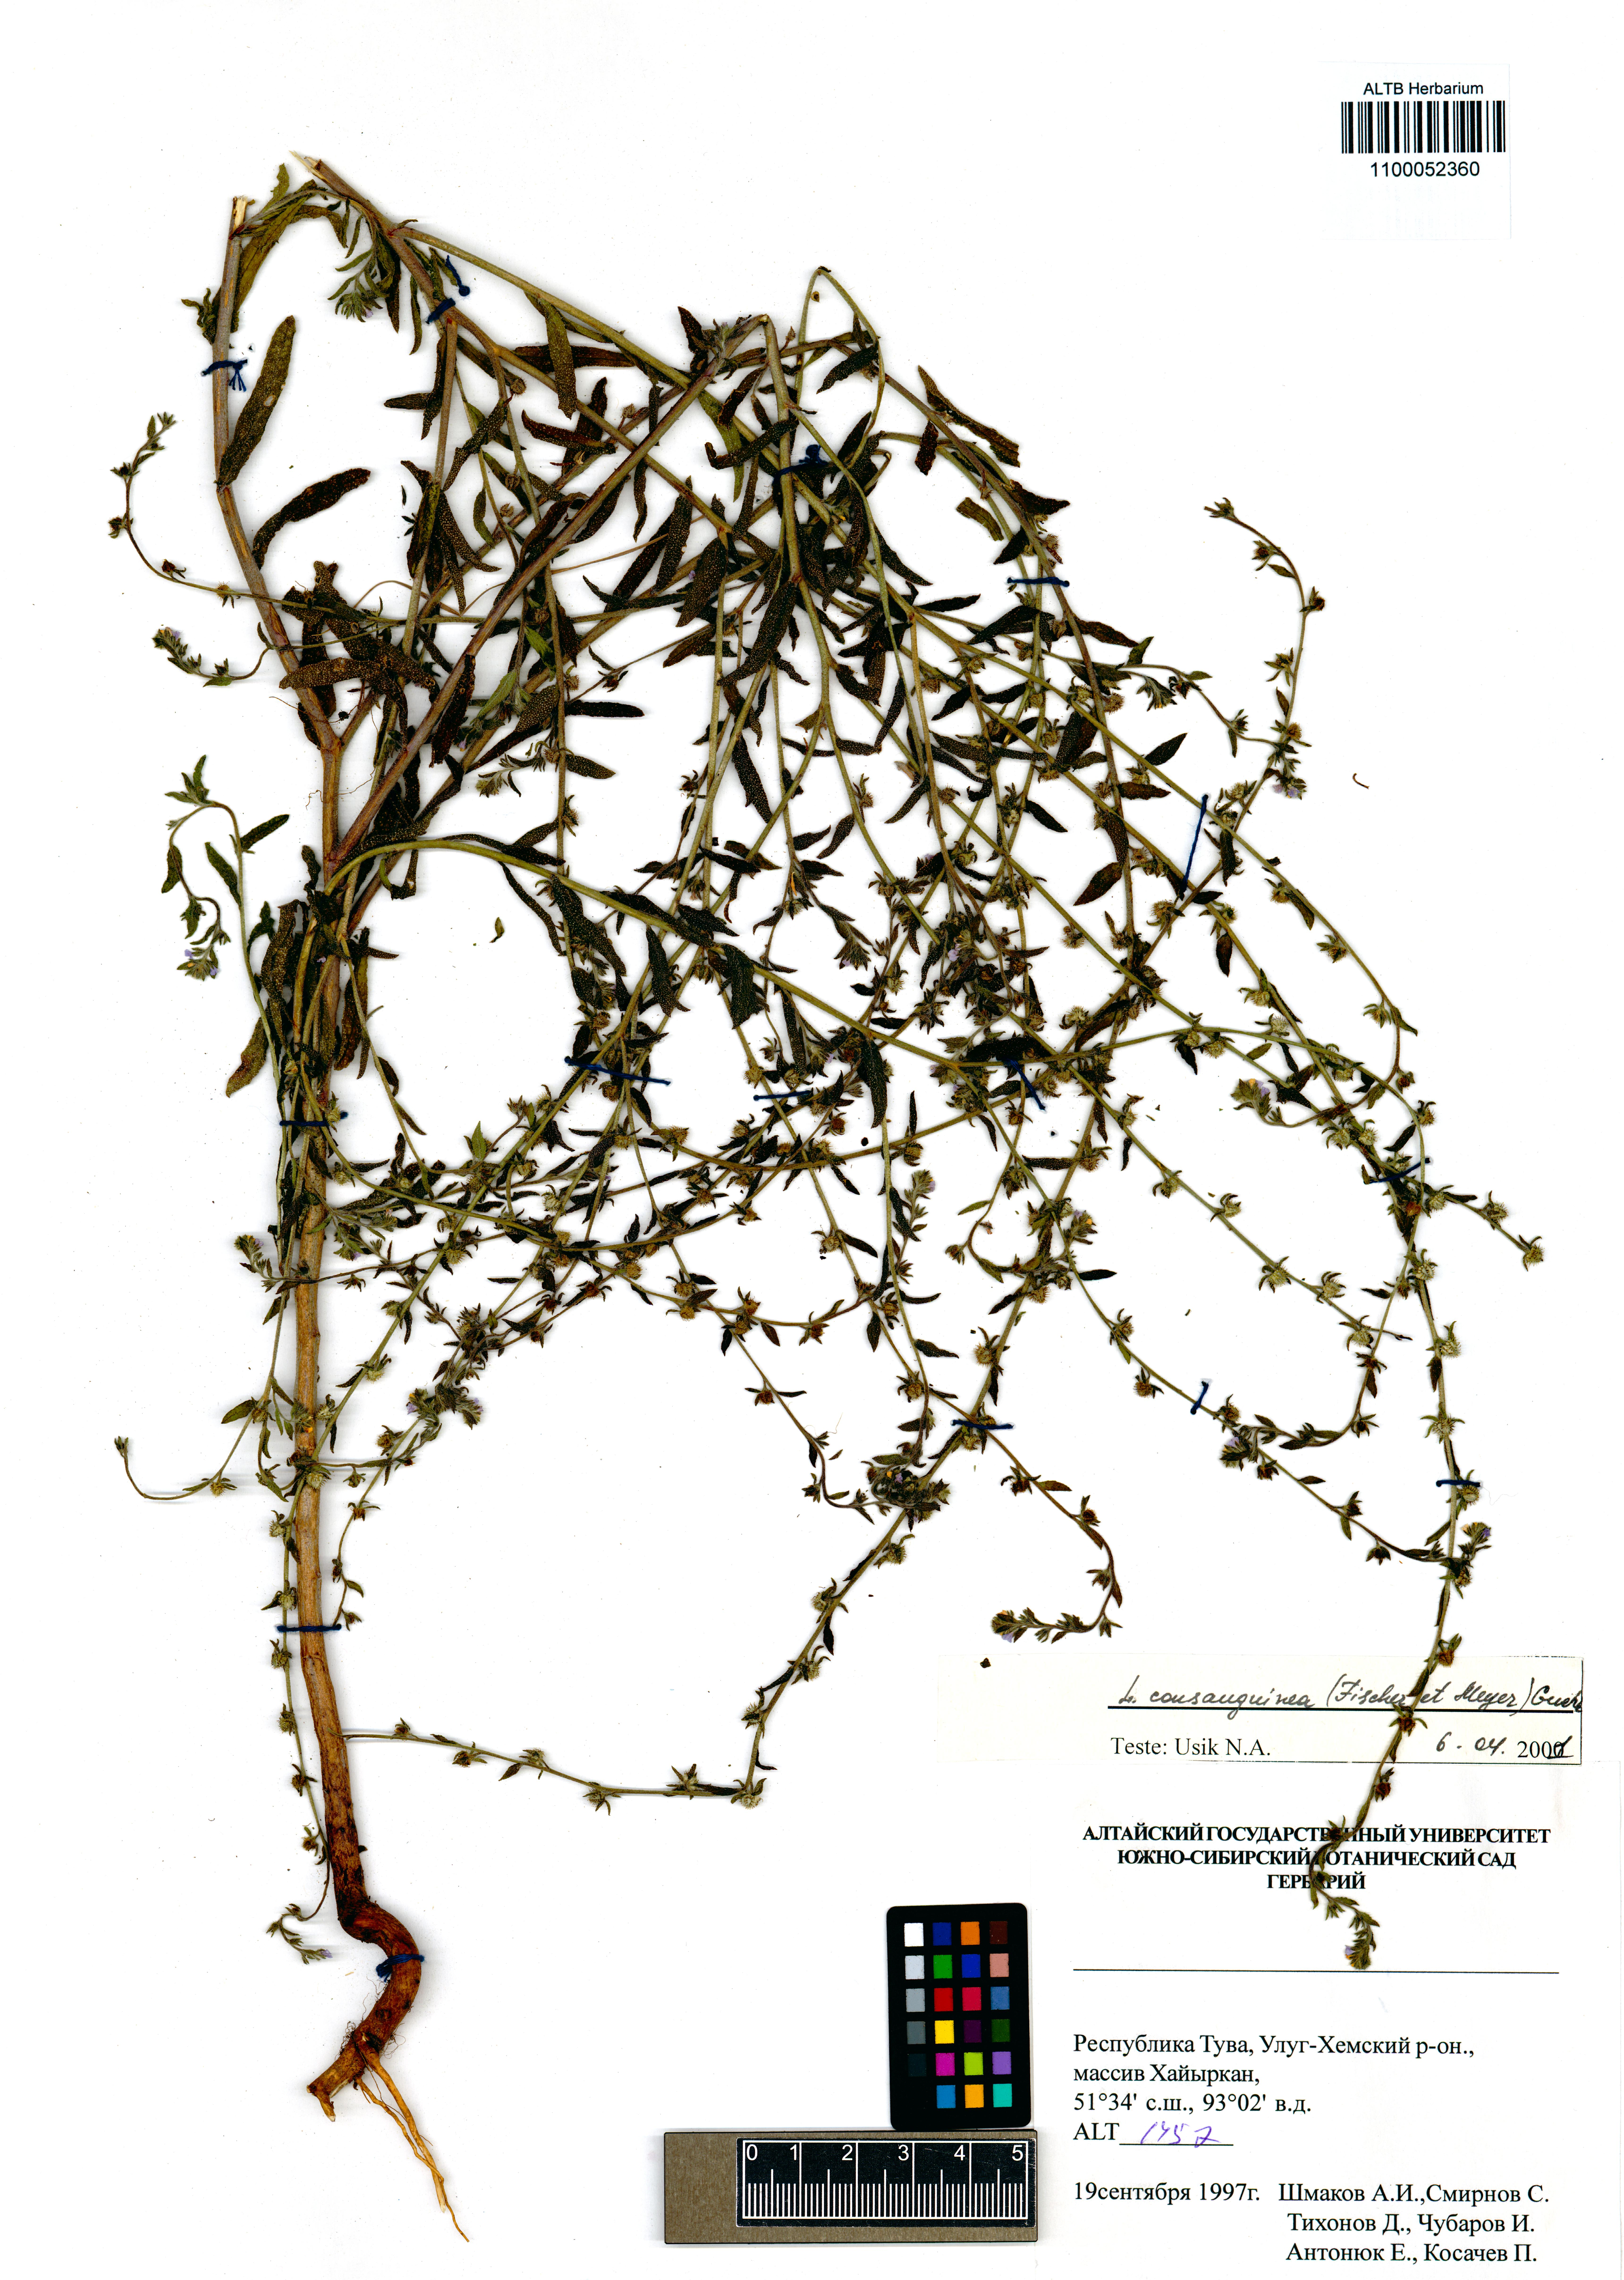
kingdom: Plantae
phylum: Tracheophyta
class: Magnoliopsida
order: Boraginales
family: Boraginaceae
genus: Lappula
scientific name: Lappula squarrosa
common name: European stickseed
